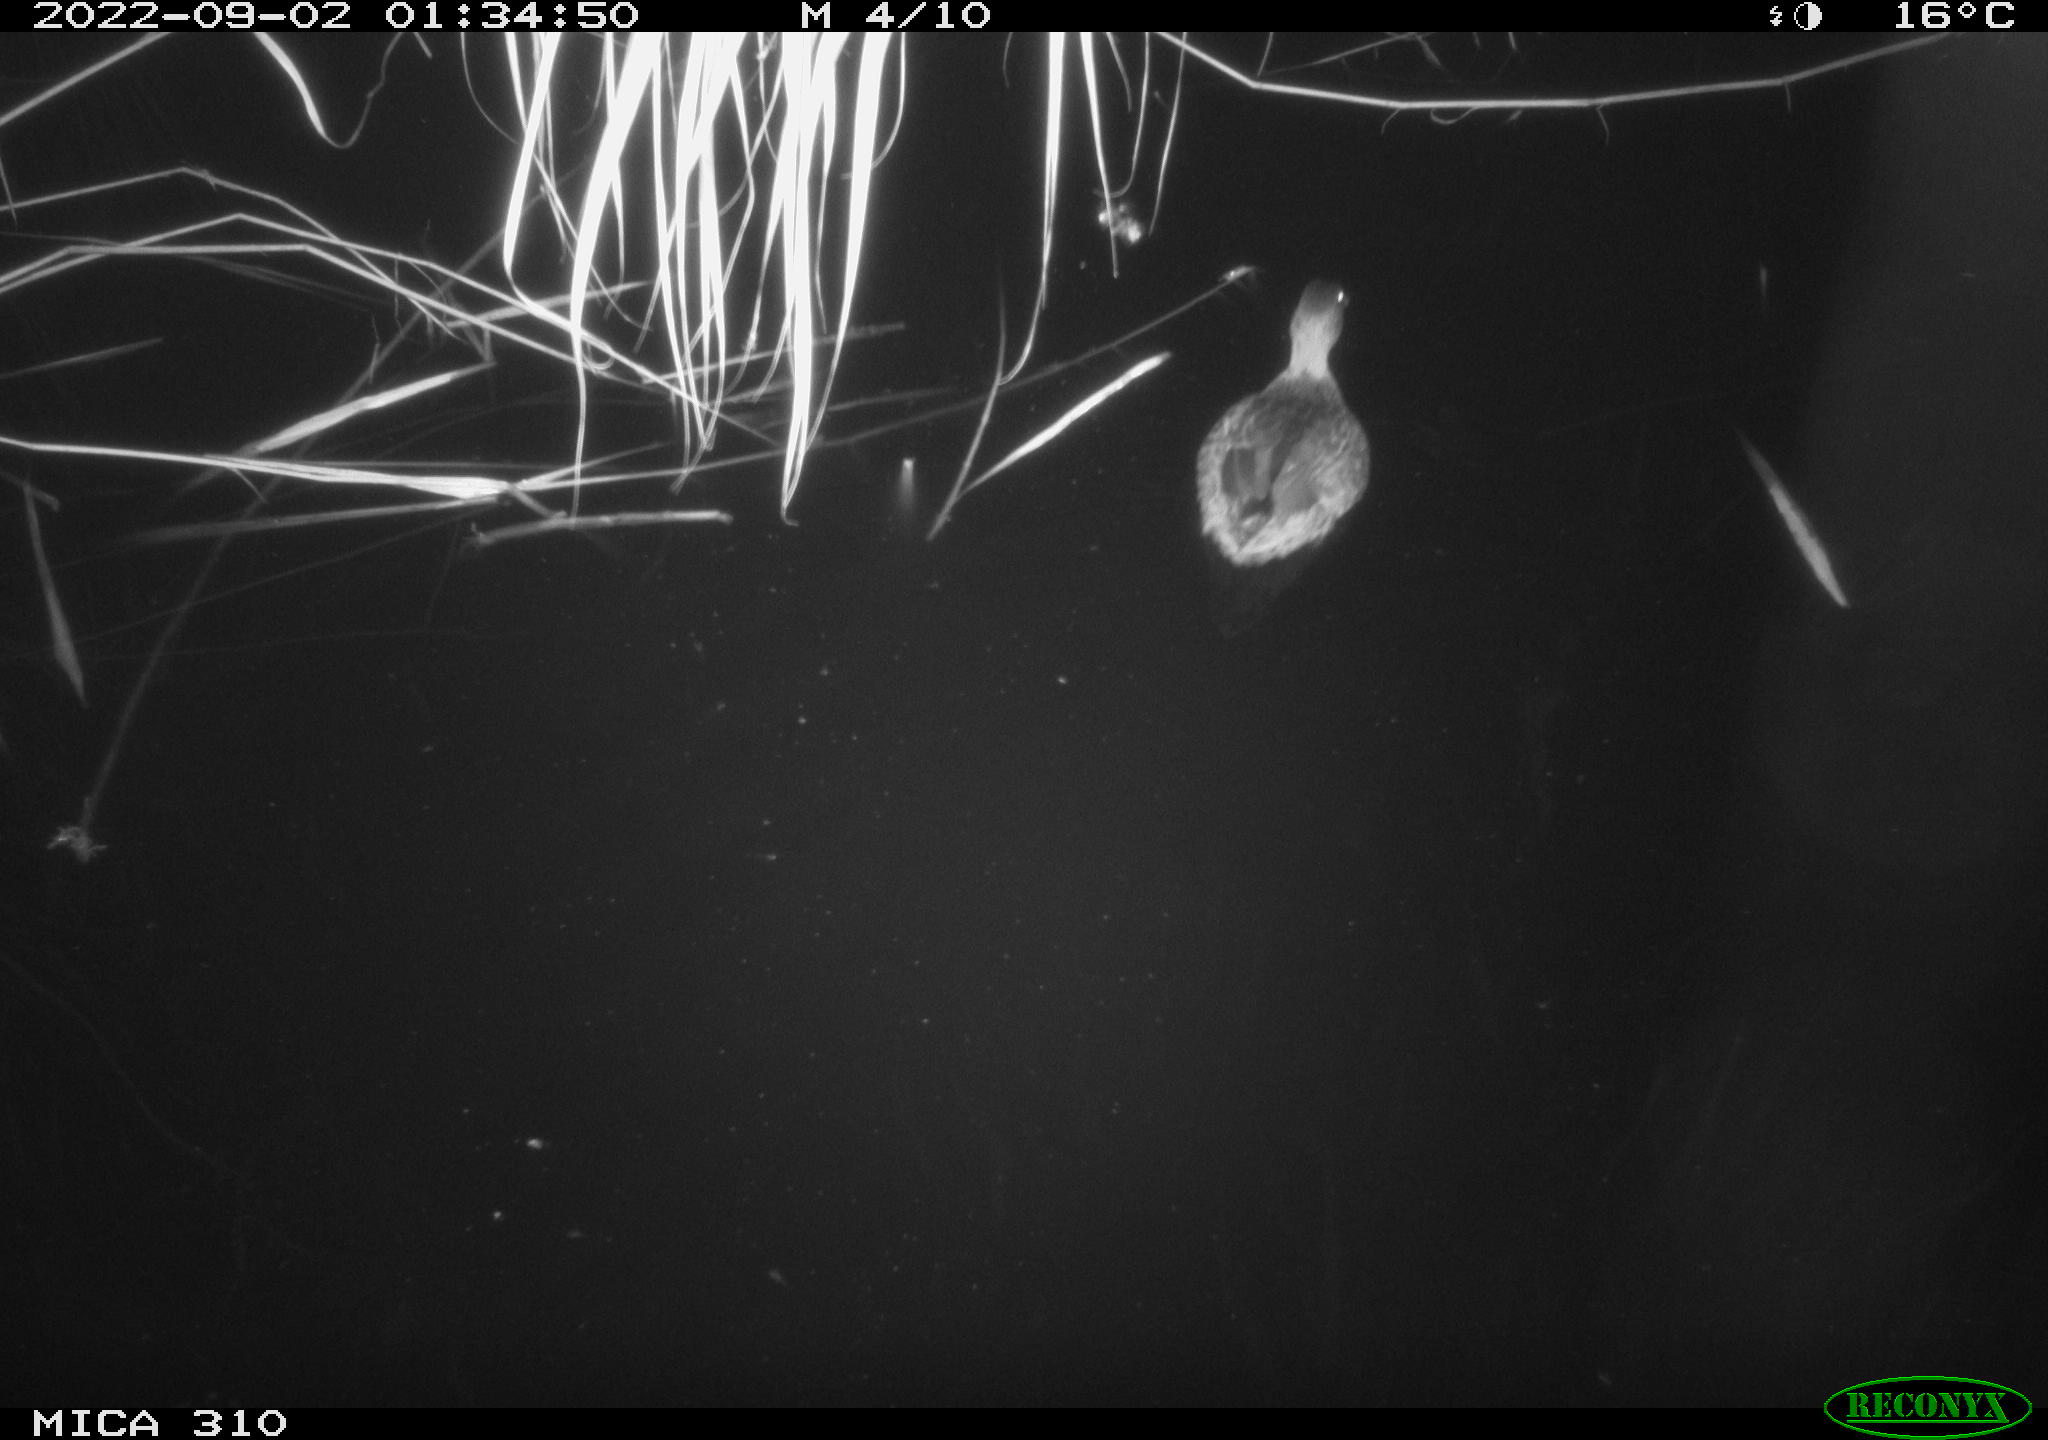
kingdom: Animalia
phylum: Chordata
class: Aves
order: Anseriformes
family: Anatidae
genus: Anas
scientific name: Anas platyrhynchos
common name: Mallard
